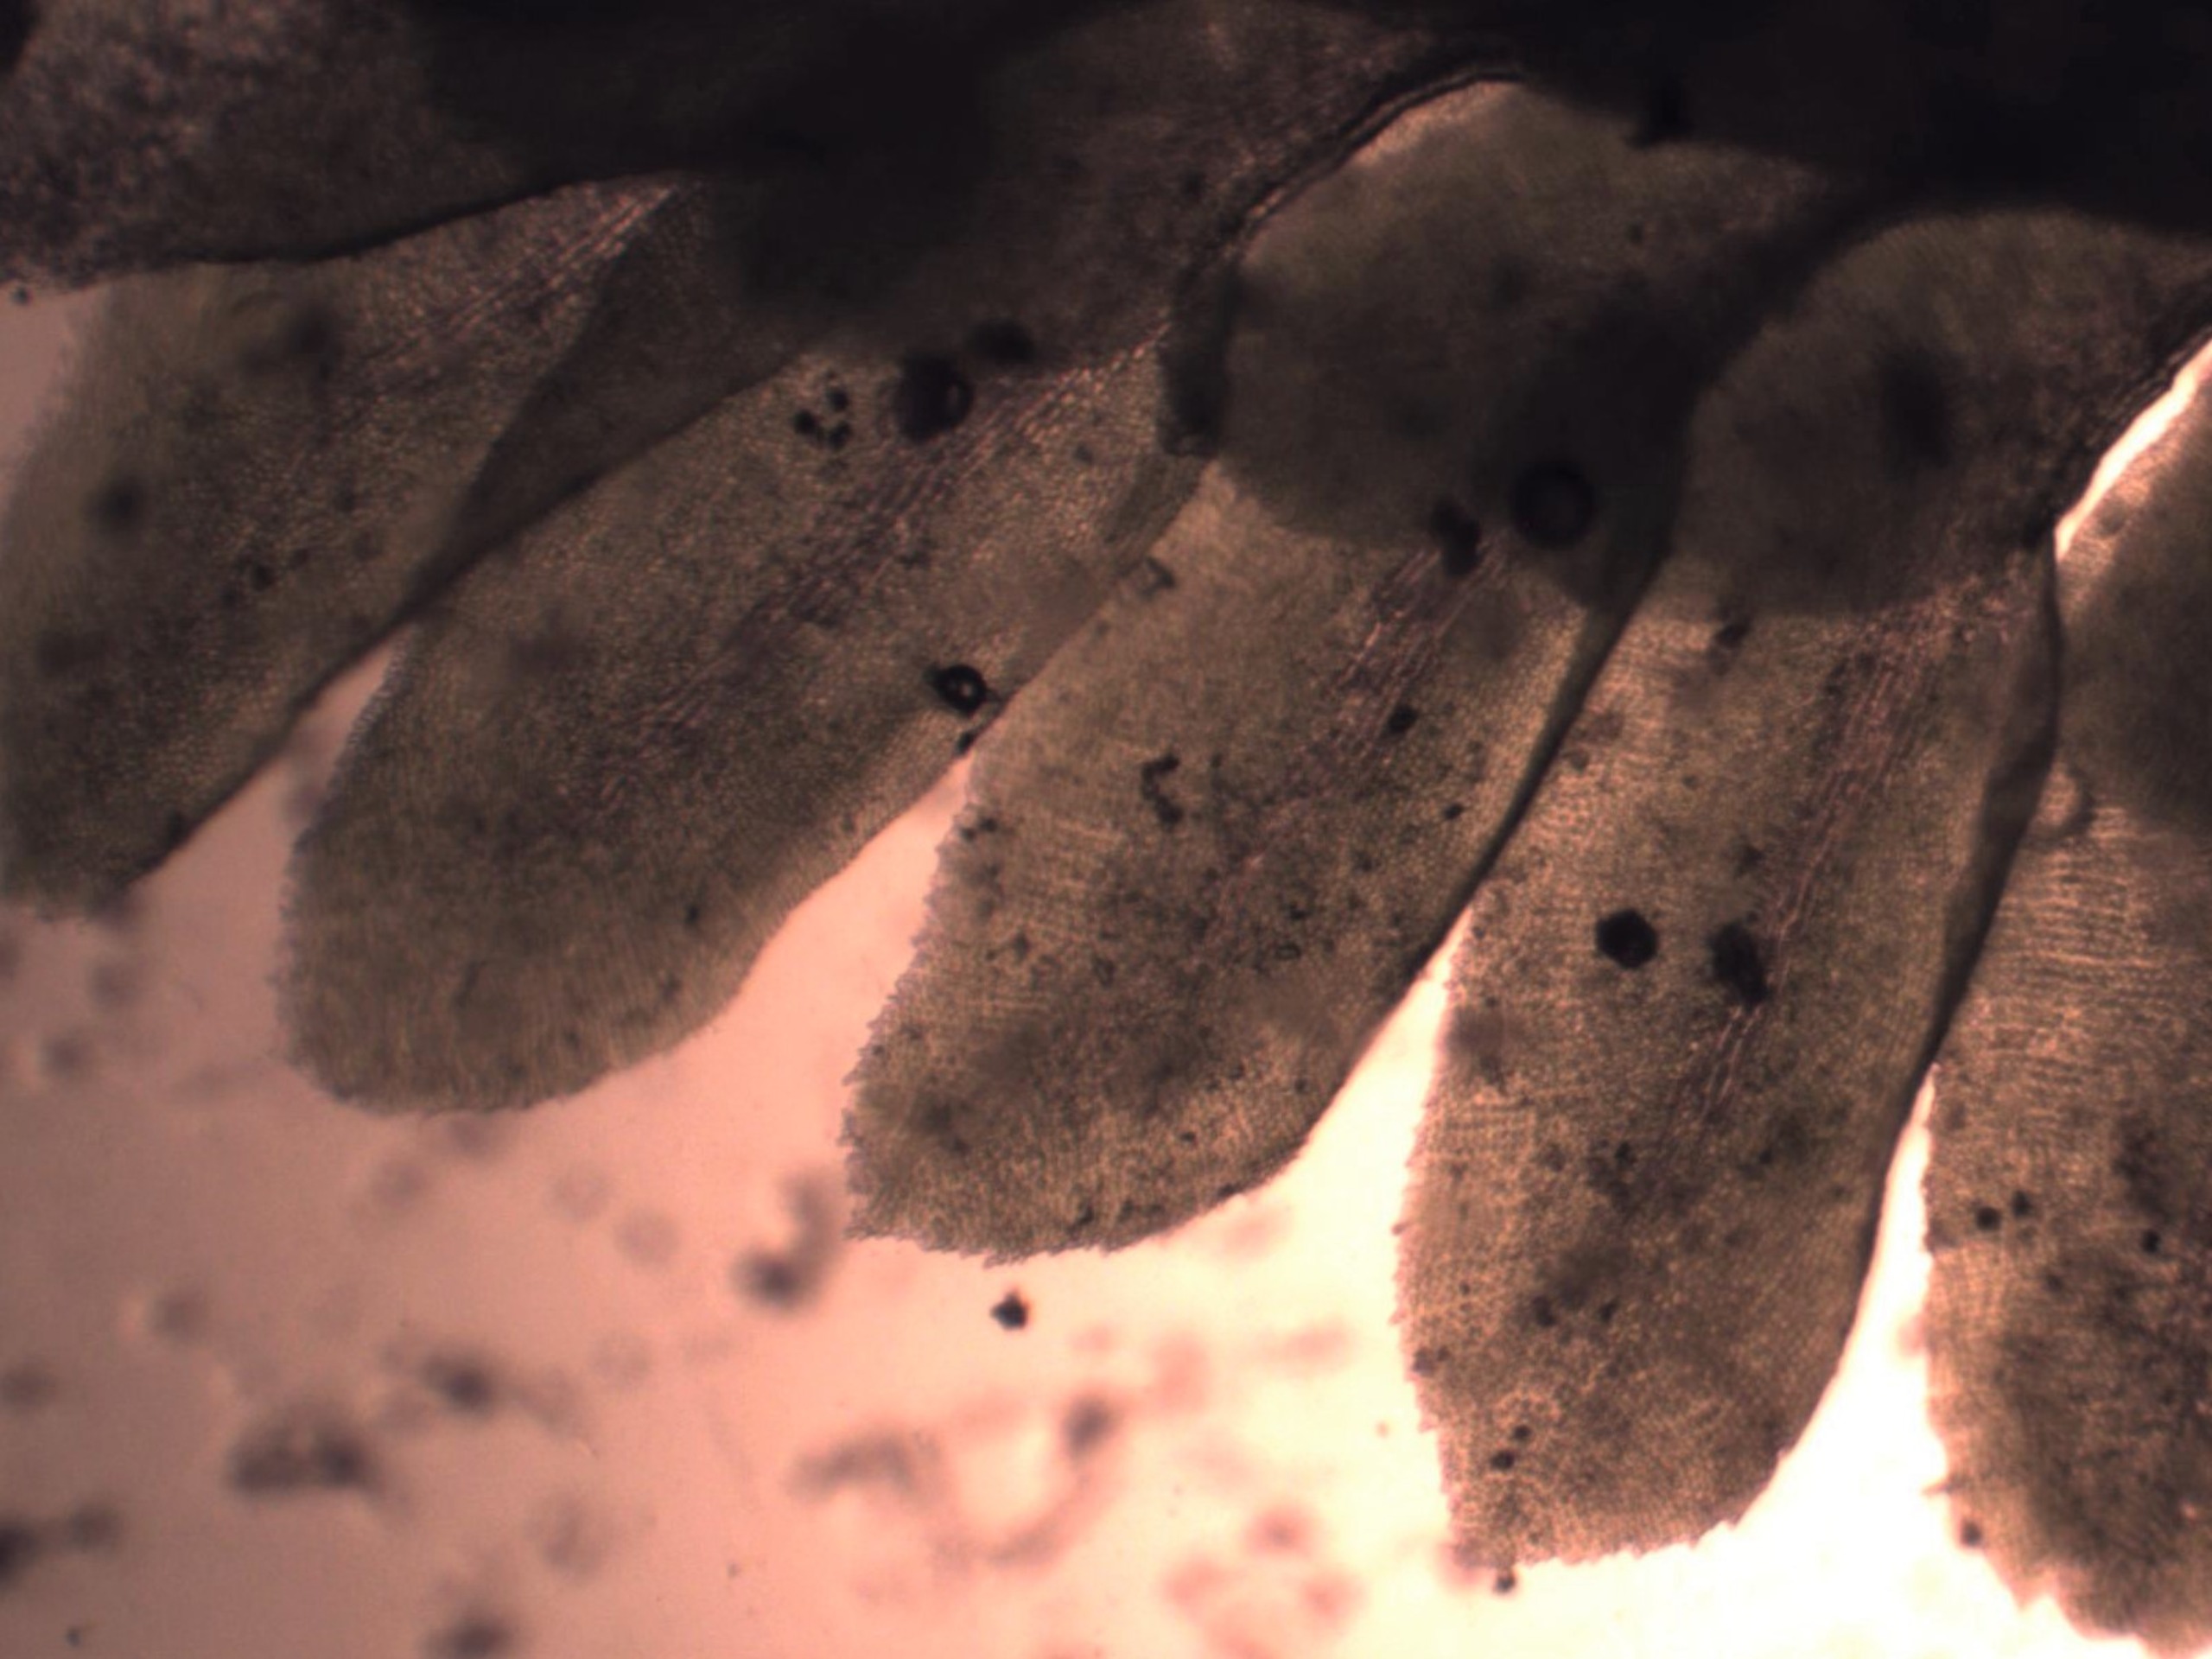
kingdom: Plantae
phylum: Marchantiophyta
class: Jungermanniopsida
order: Jungermanniales
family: Scapaniaceae
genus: Diplophyllum
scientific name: Diplophyllum albicans
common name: Stribet dobbeltblad
